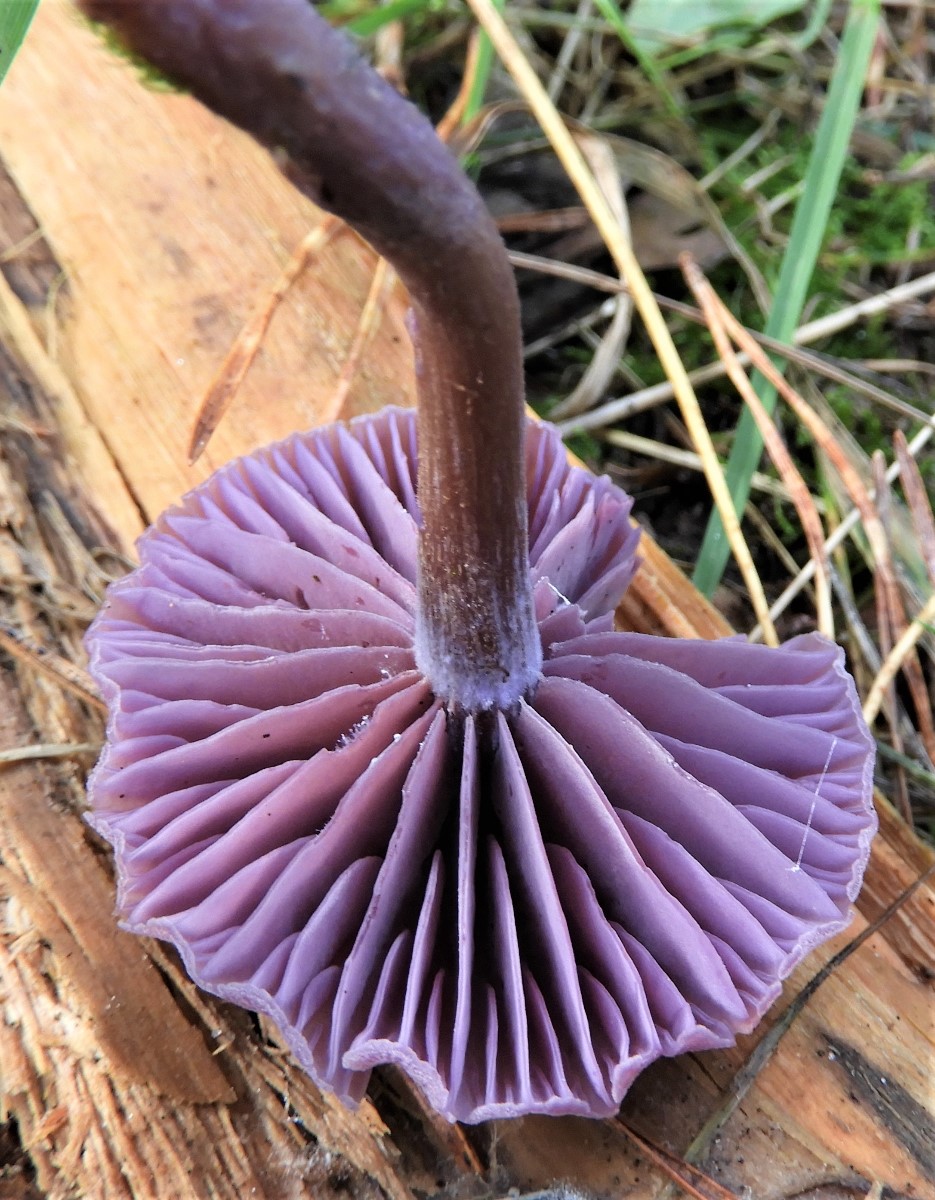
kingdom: Fungi
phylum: Basidiomycota
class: Agaricomycetes
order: Agaricales
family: Hydnangiaceae
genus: Laccaria
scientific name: Laccaria amethystina
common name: violet ametysthat
